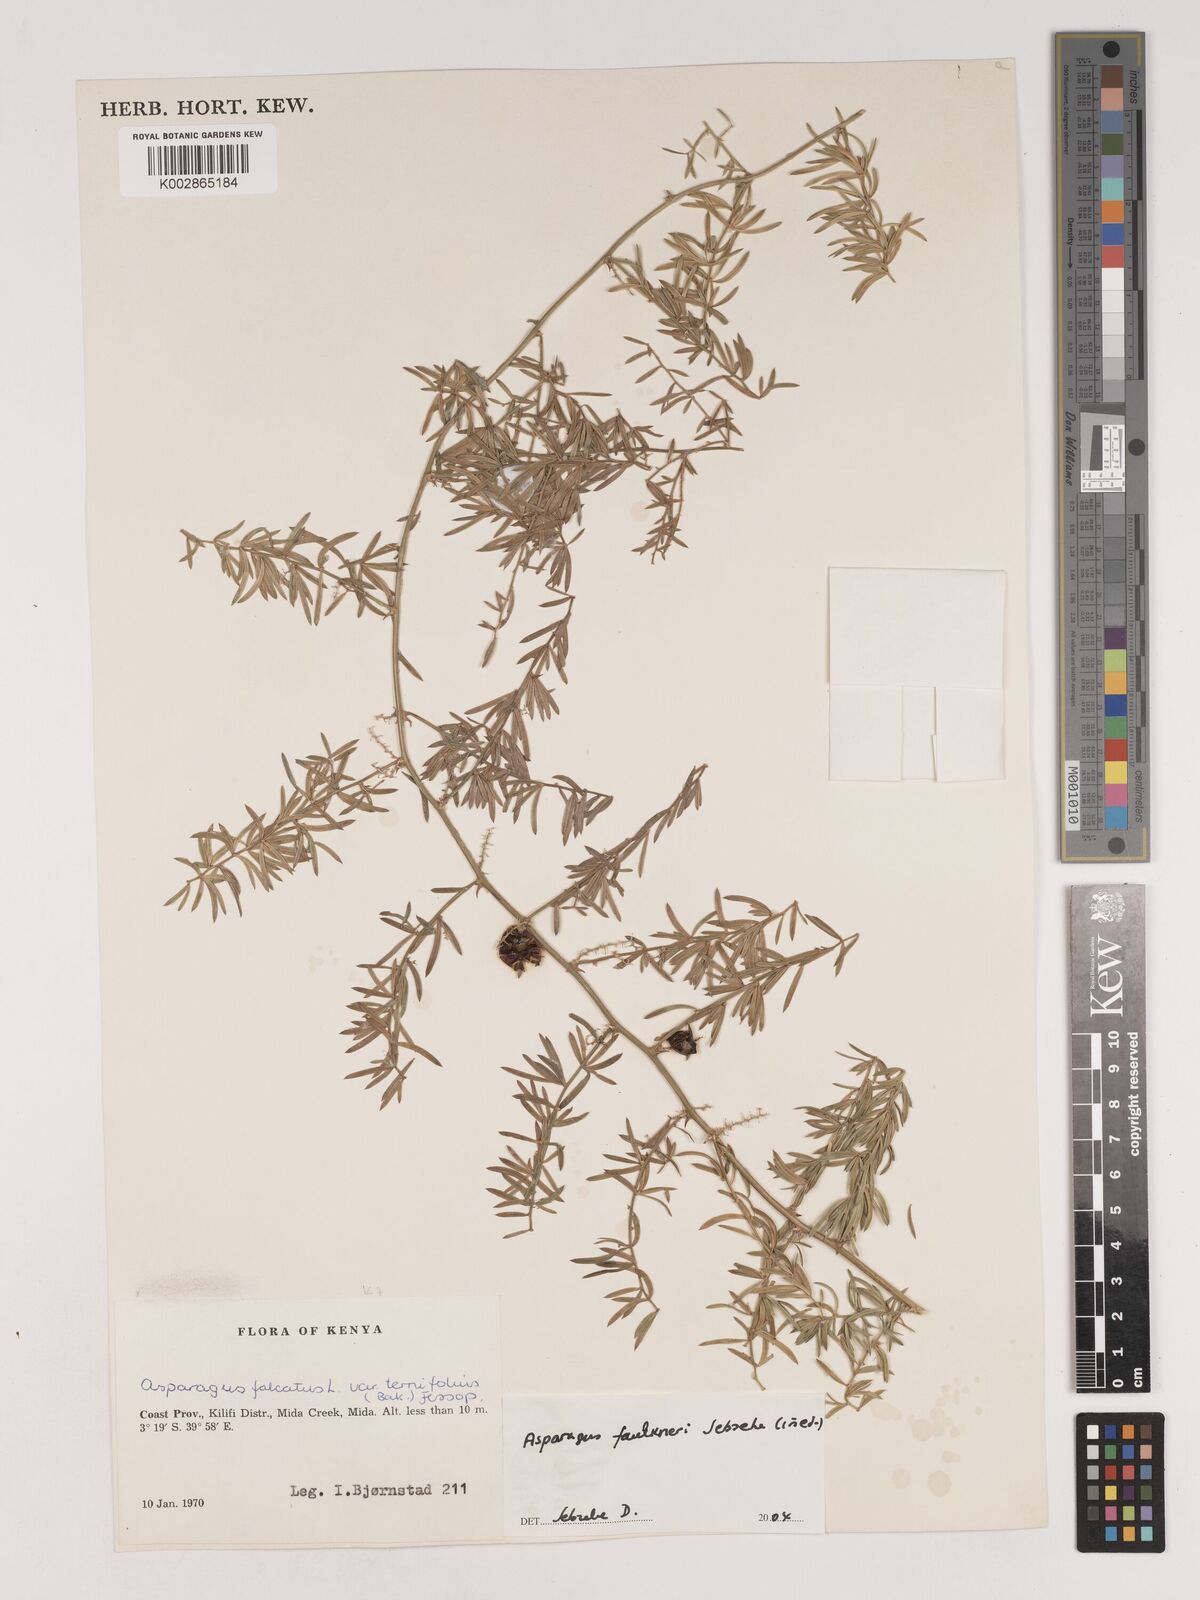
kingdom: Plantae
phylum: Tracheophyta
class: Liliopsida
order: Asparagales
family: Asparagaceae
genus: Asparagus
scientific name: Asparagus faulkneri
